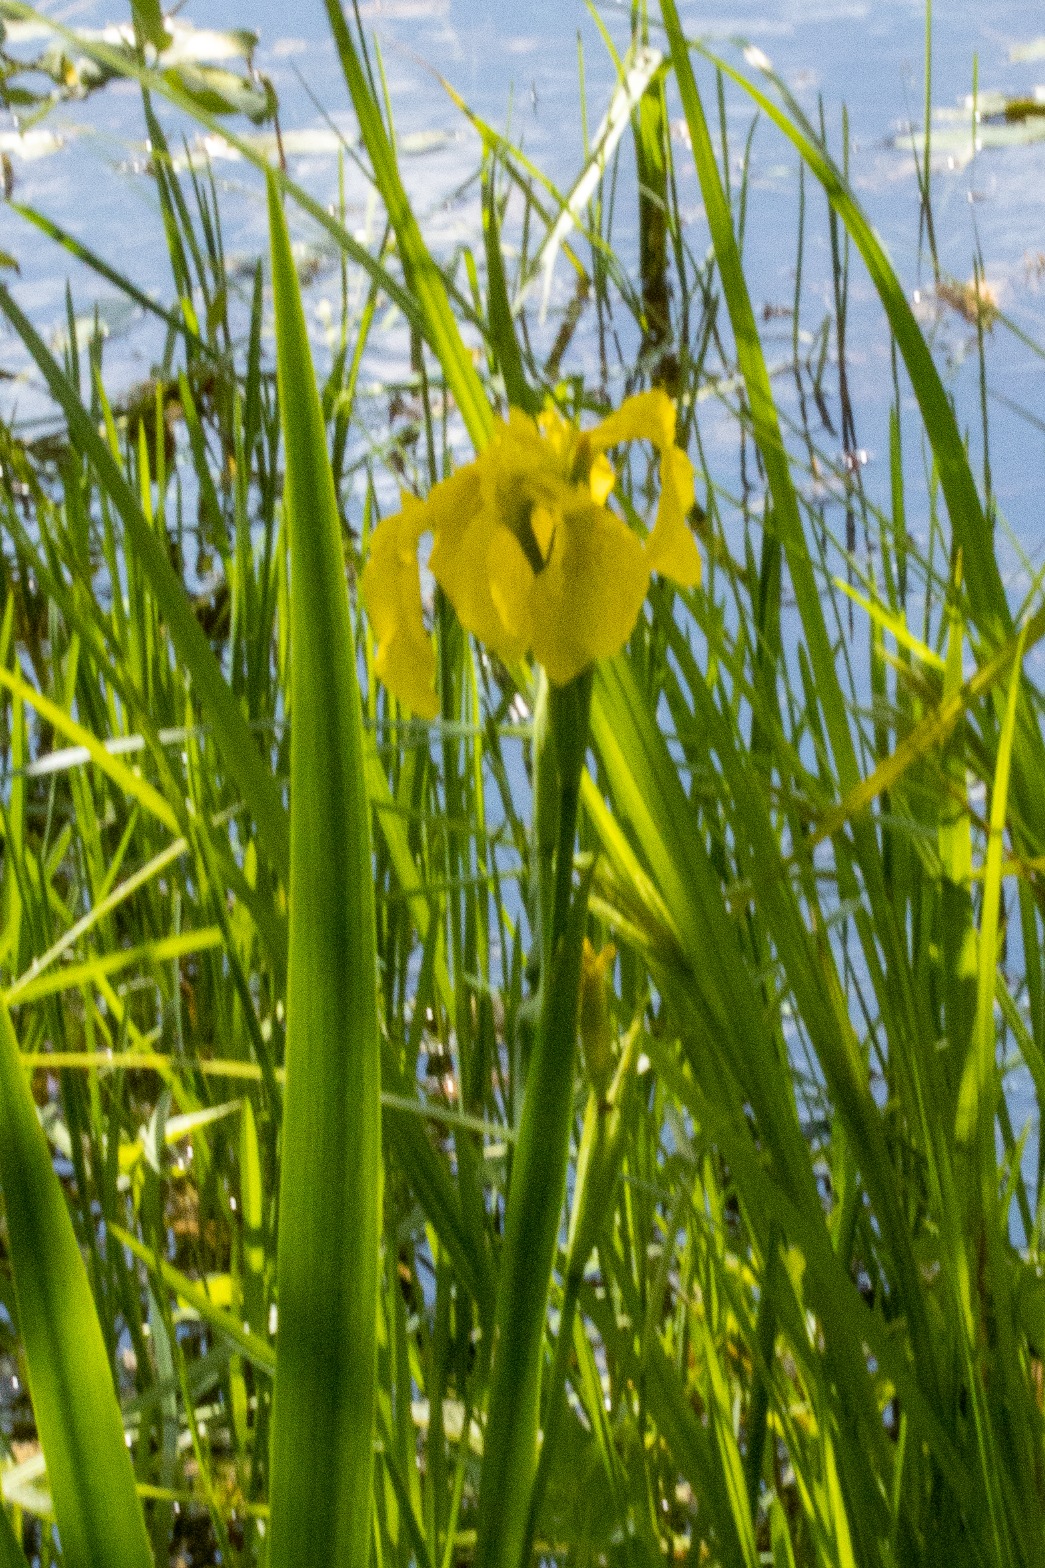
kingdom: Plantae
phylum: Tracheophyta
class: Liliopsida
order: Asparagales
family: Iridaceae
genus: Iris
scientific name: Iris pseudacorus
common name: Gul iris
